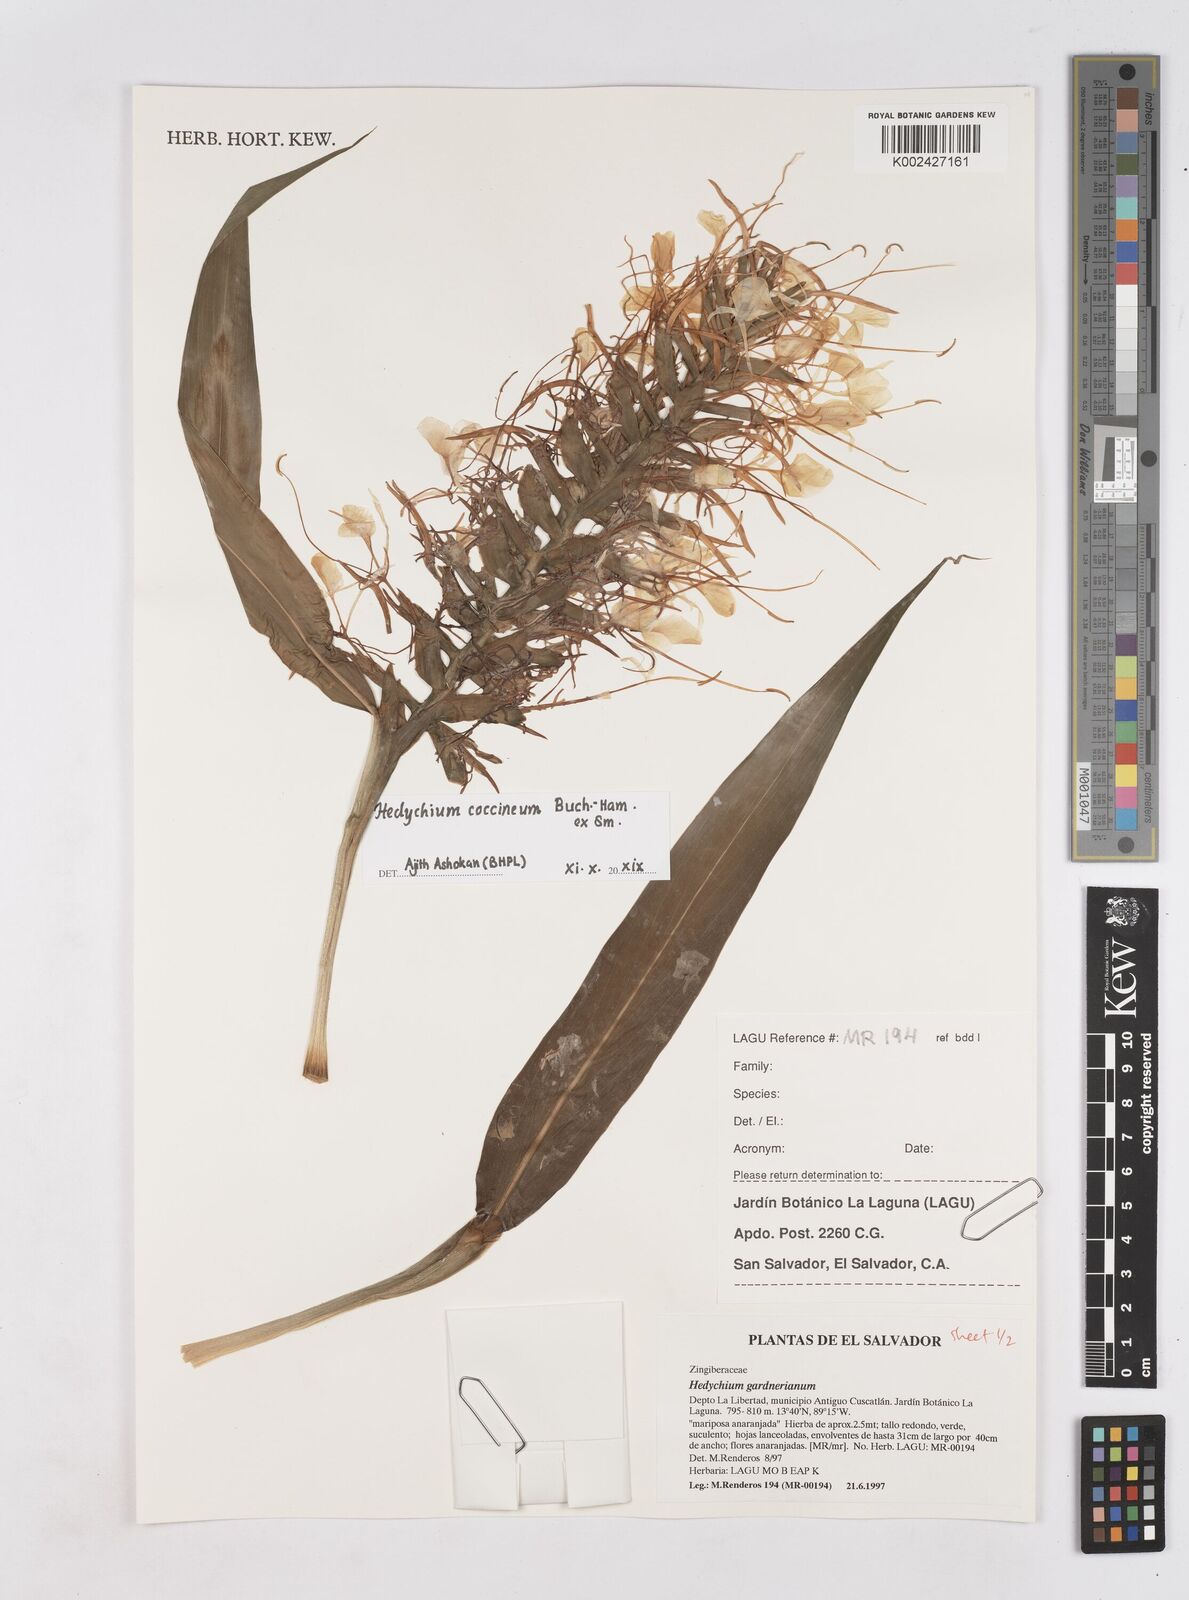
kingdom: Plantae
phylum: Tracheophyta
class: Liliopsida
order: Zingiberales
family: Zingiberaceae
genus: Hedychium
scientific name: Hedychium gardnerianum
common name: Himalayan ginger
